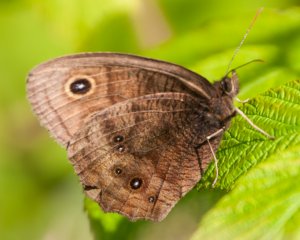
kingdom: Animalia
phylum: Arthropoda
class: Insecta
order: Lepidoptera
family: Nymphalidae
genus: Cercyonis
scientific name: Cercyonis pegala
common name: Common Wood-Nymph
